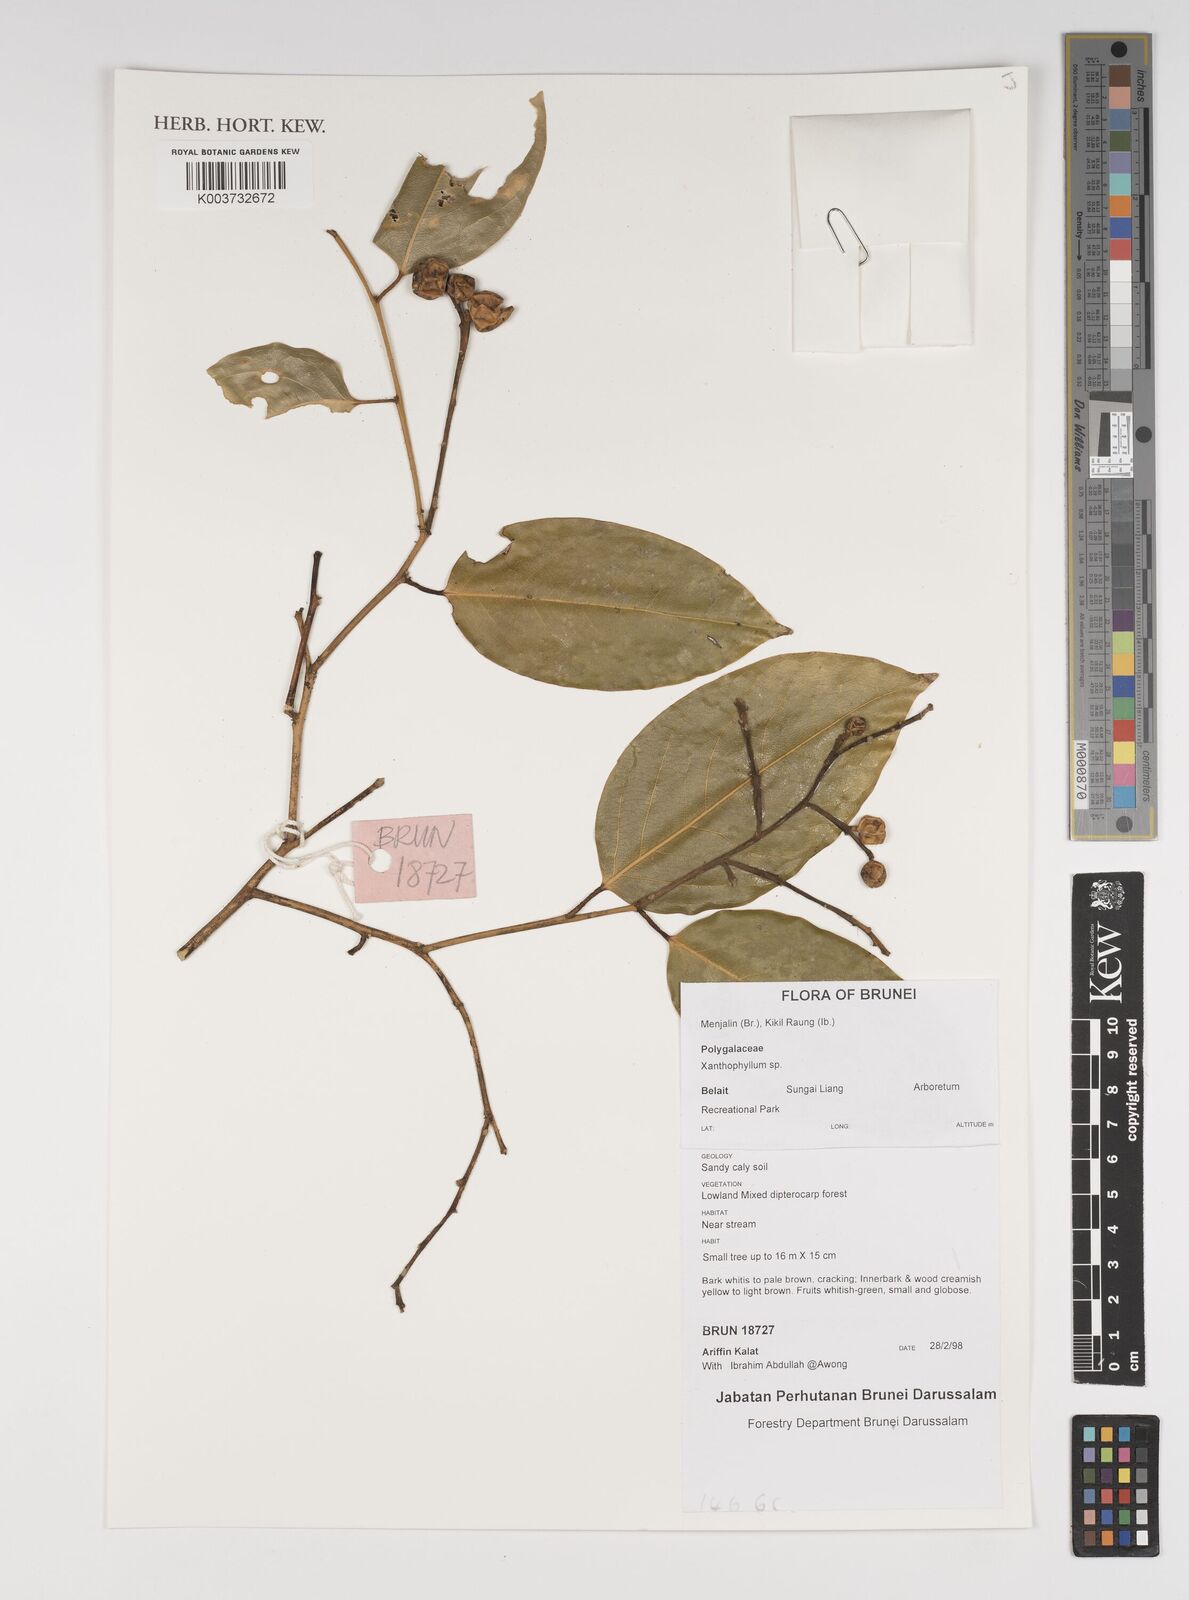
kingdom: Plantae
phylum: Tracheophyta
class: Magnoliopsida
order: Fabales
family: Polygalaceae
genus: Xanthophyllum
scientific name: Xanthophyllum
